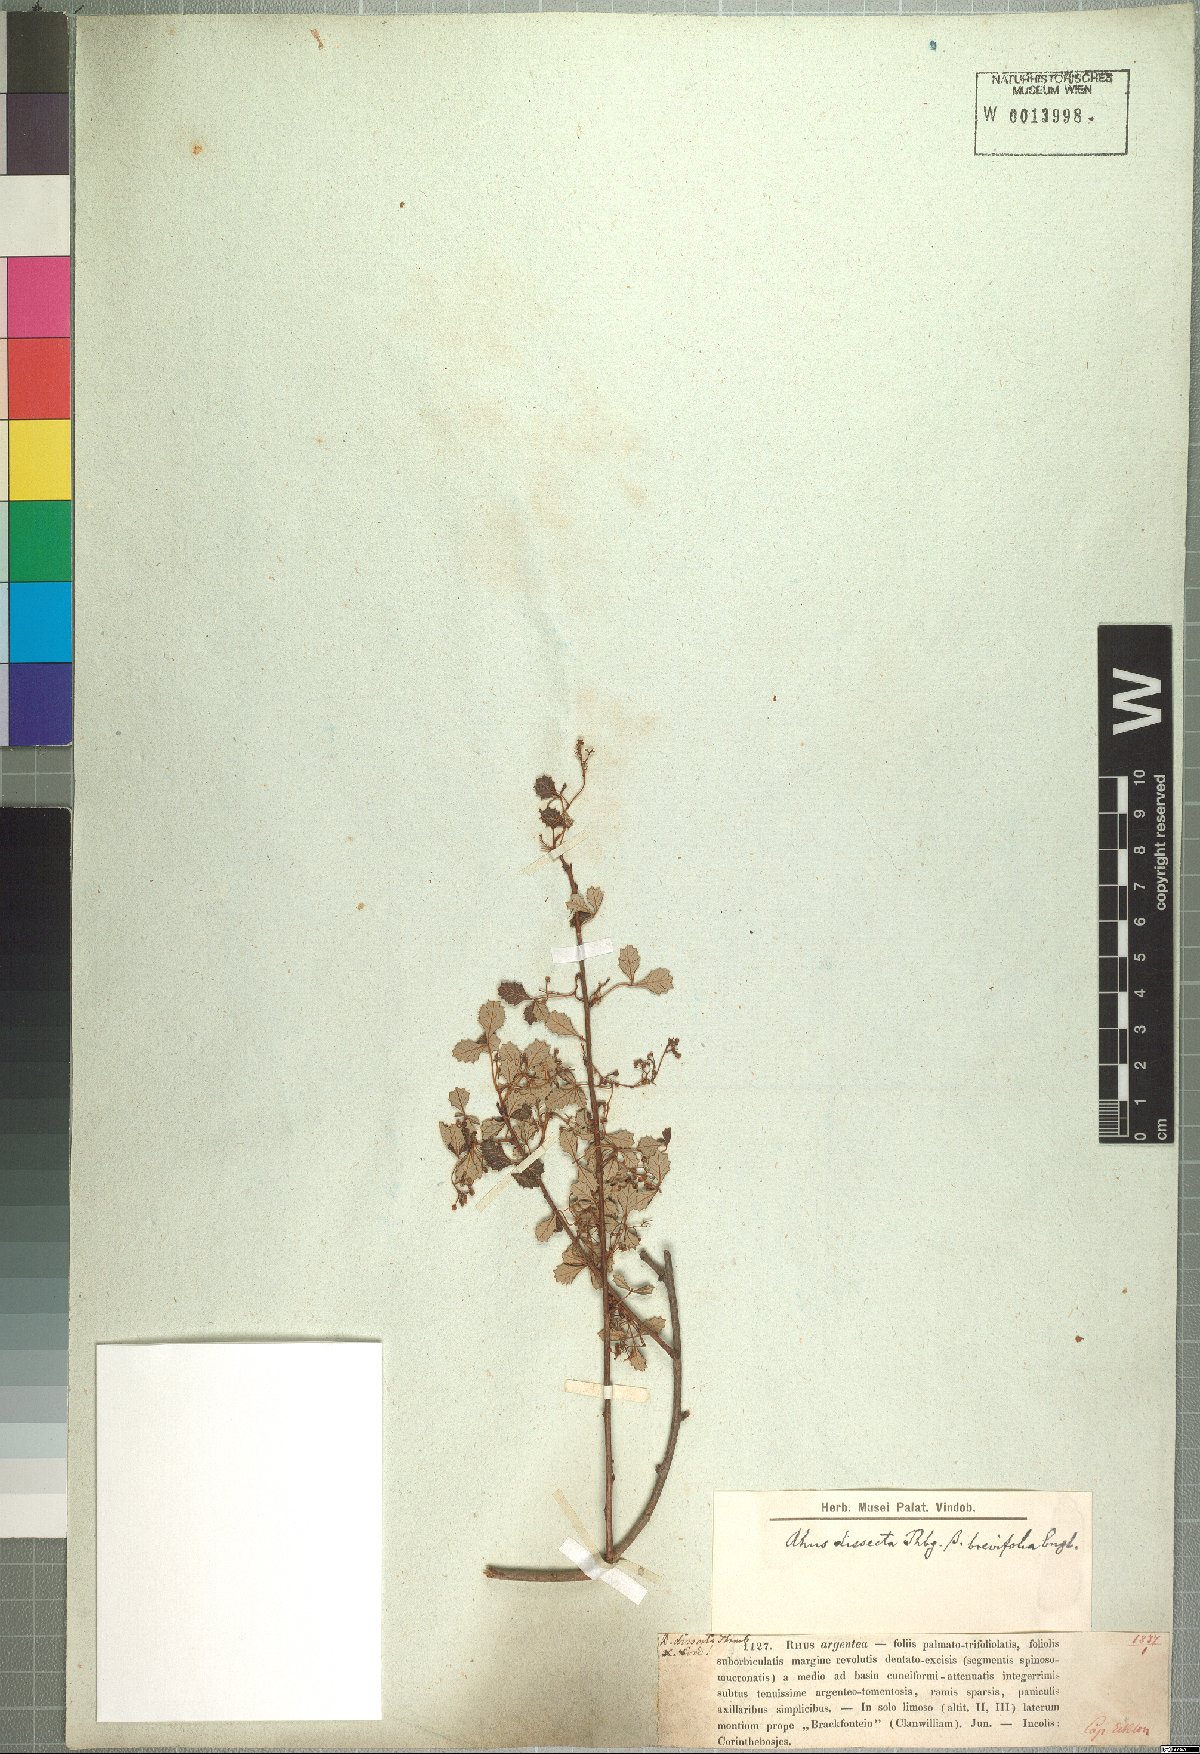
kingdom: Plantae
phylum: Tracheophyta
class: Magnoliopsida
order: Sapindales
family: Anacardiaceae
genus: Searsia
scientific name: Searsia dissecta
